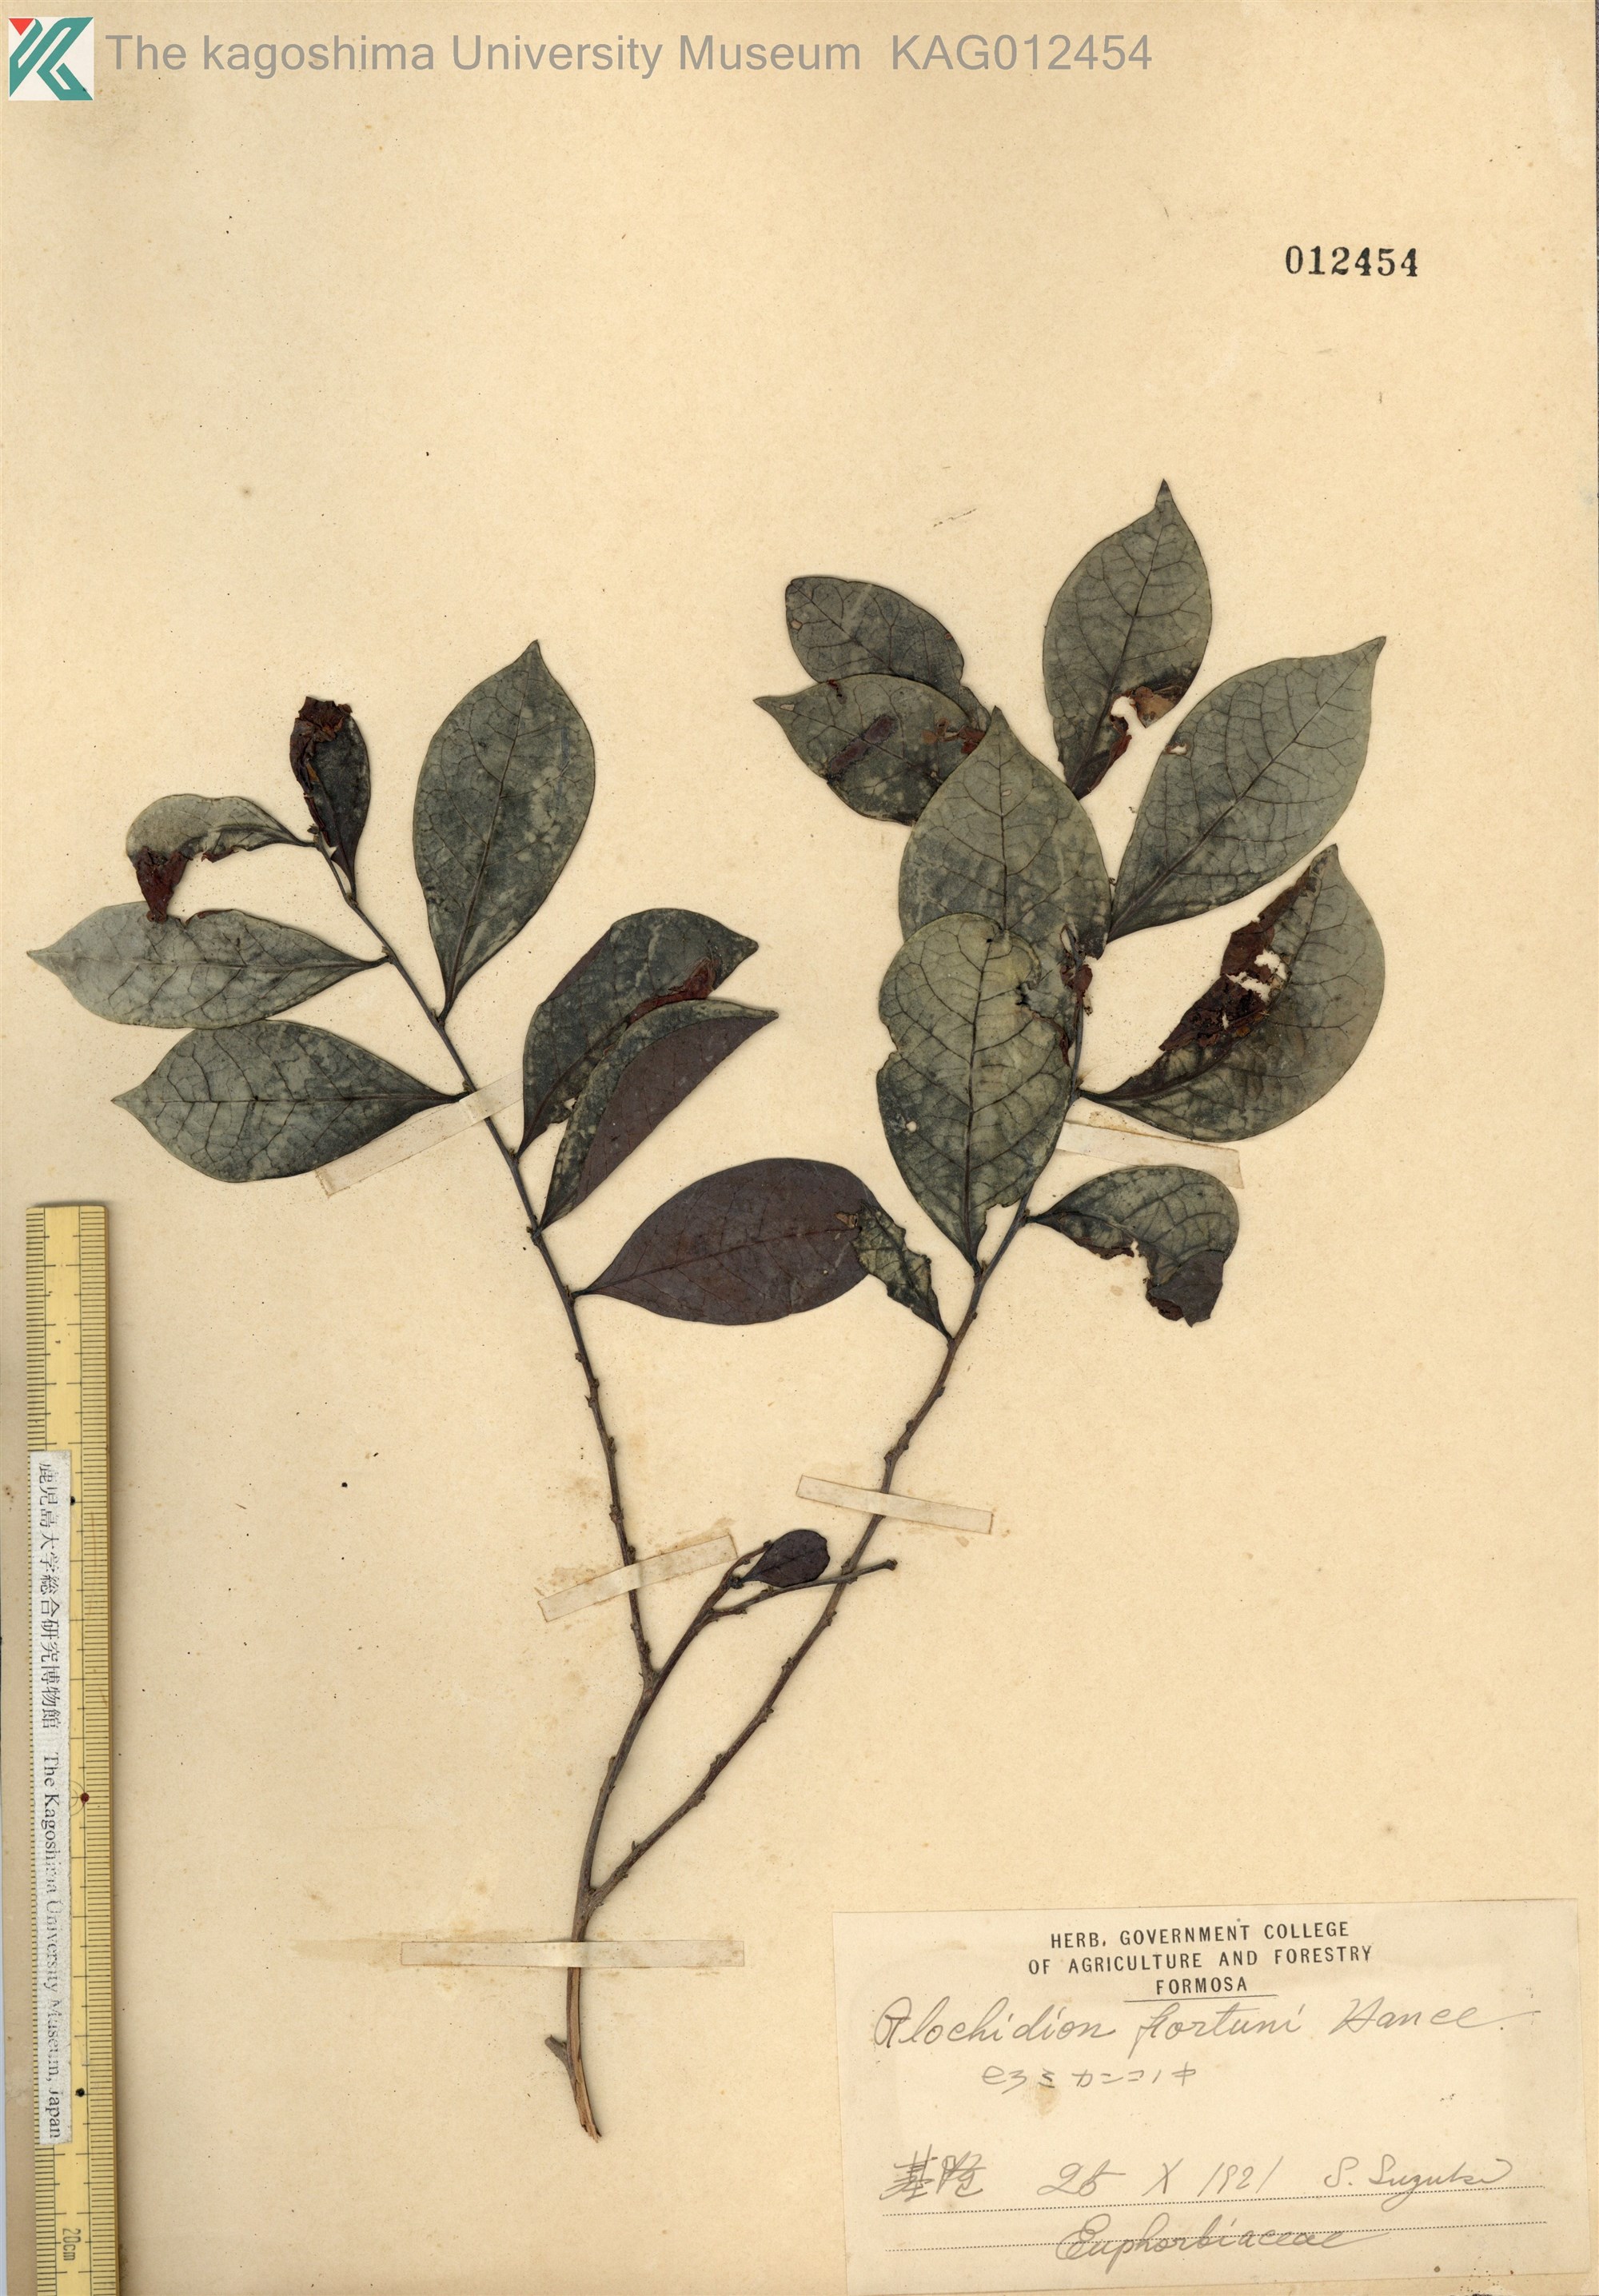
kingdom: Plantae
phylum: Tracheophyta
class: Magnoliopsida
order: Malpighiales
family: Phyllanthaceae
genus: Glochidion
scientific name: Glochidion rubrum
